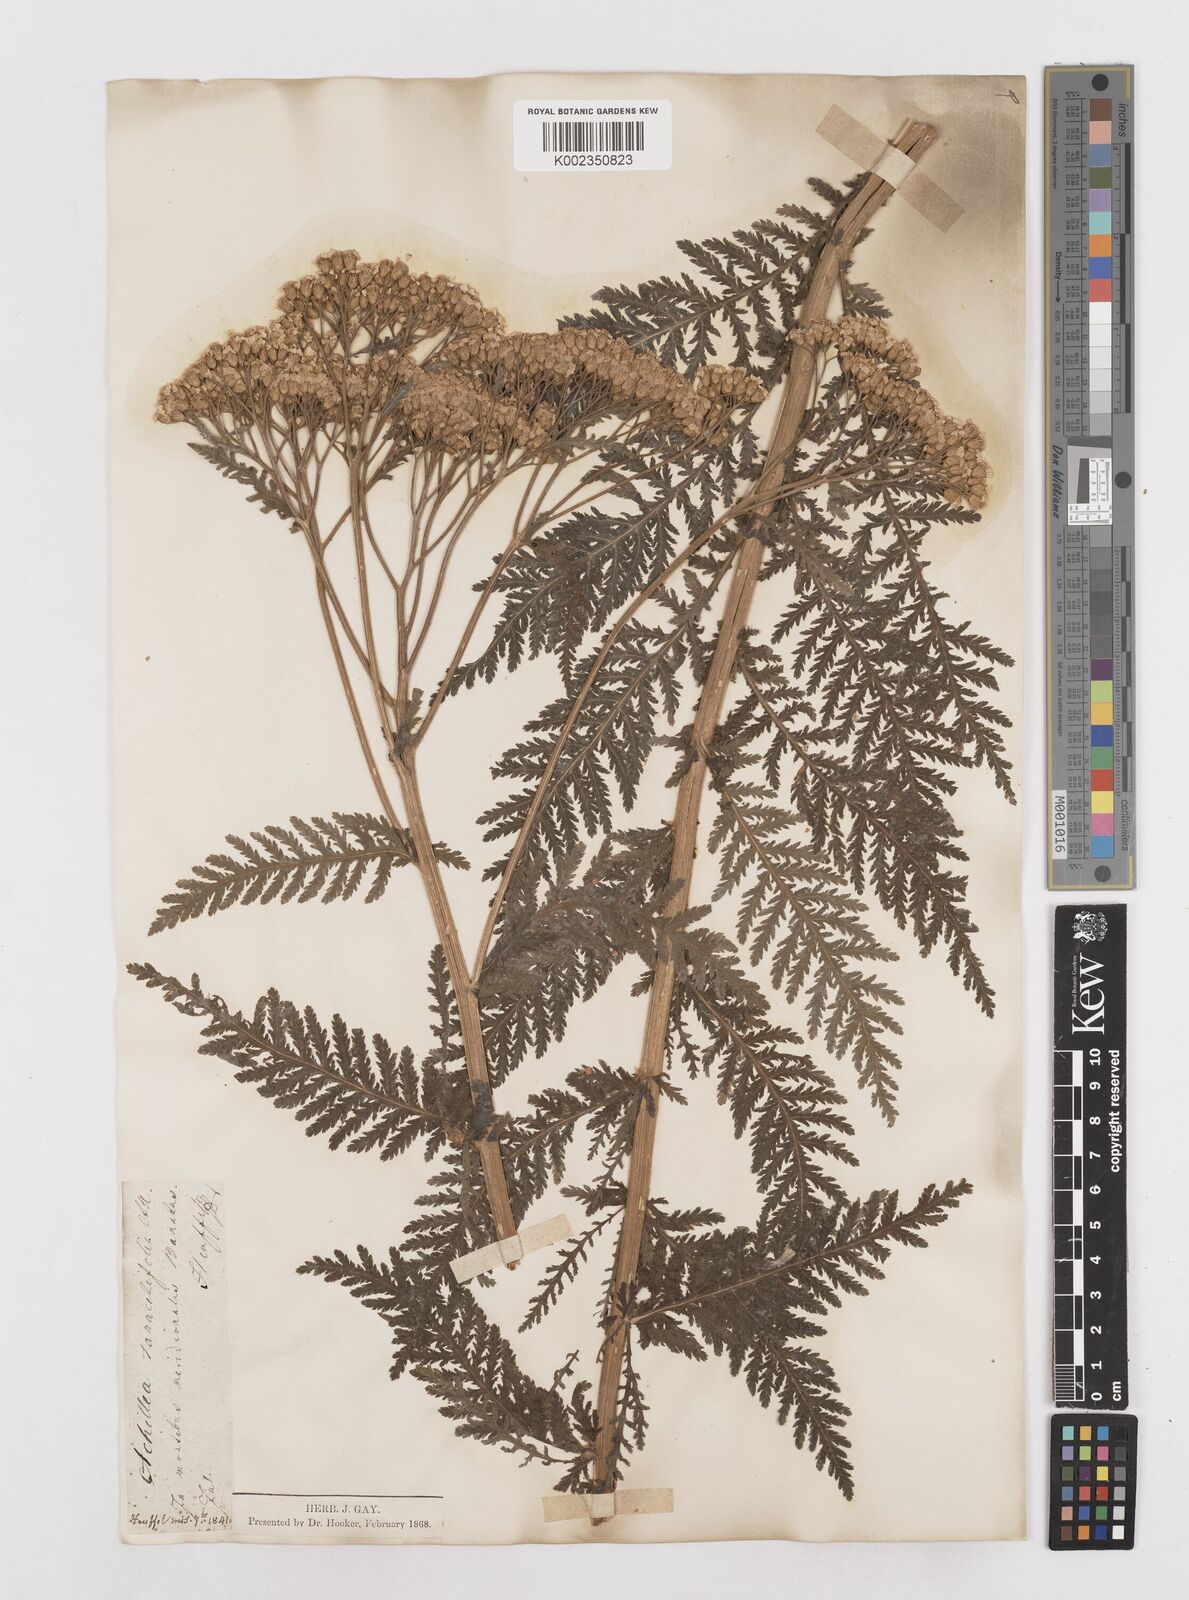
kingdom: Plantae
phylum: Tracheophyta
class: Magnoliopsida
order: Asterales
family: Asteraceae
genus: Achillea
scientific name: Achillea distans
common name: Tall yarrow
